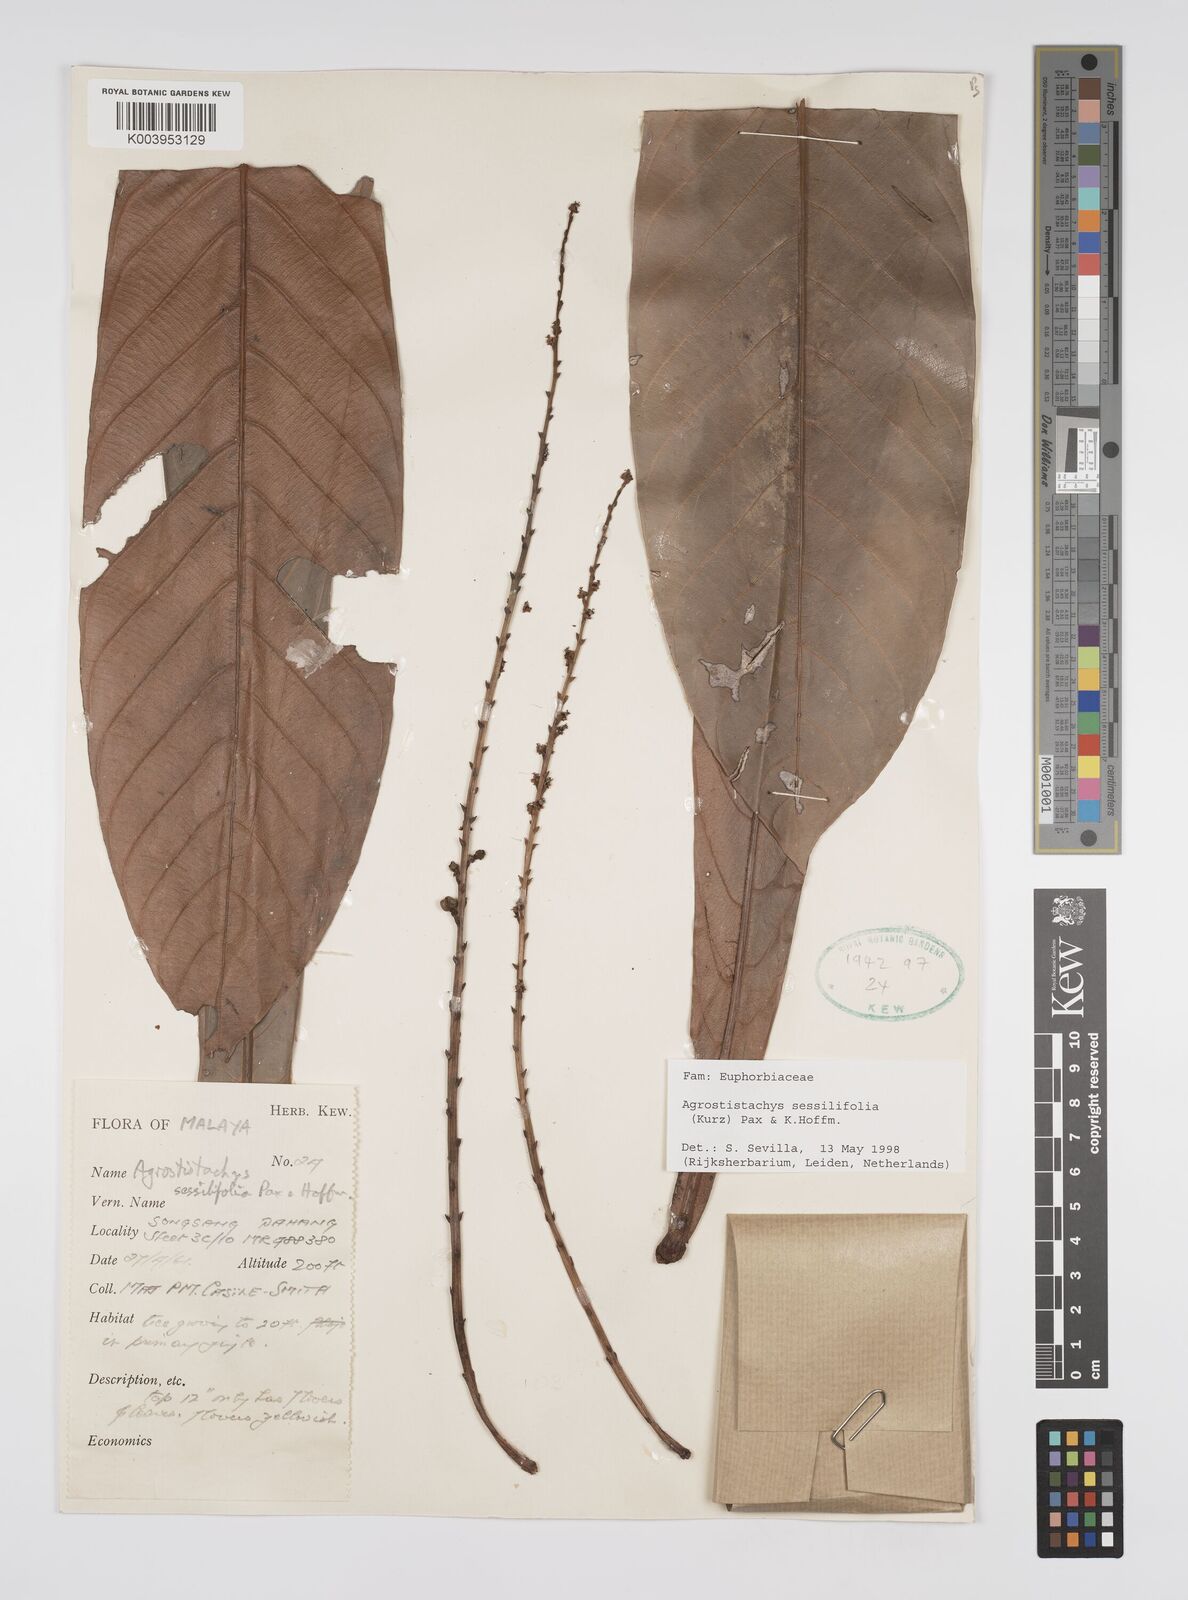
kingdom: Plantae
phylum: Tracheophyta
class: Magnoliopsida
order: Malpighiales
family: Euphorbiaceae
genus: Agrostistachys
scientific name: Agrostistachys sessilifolia
